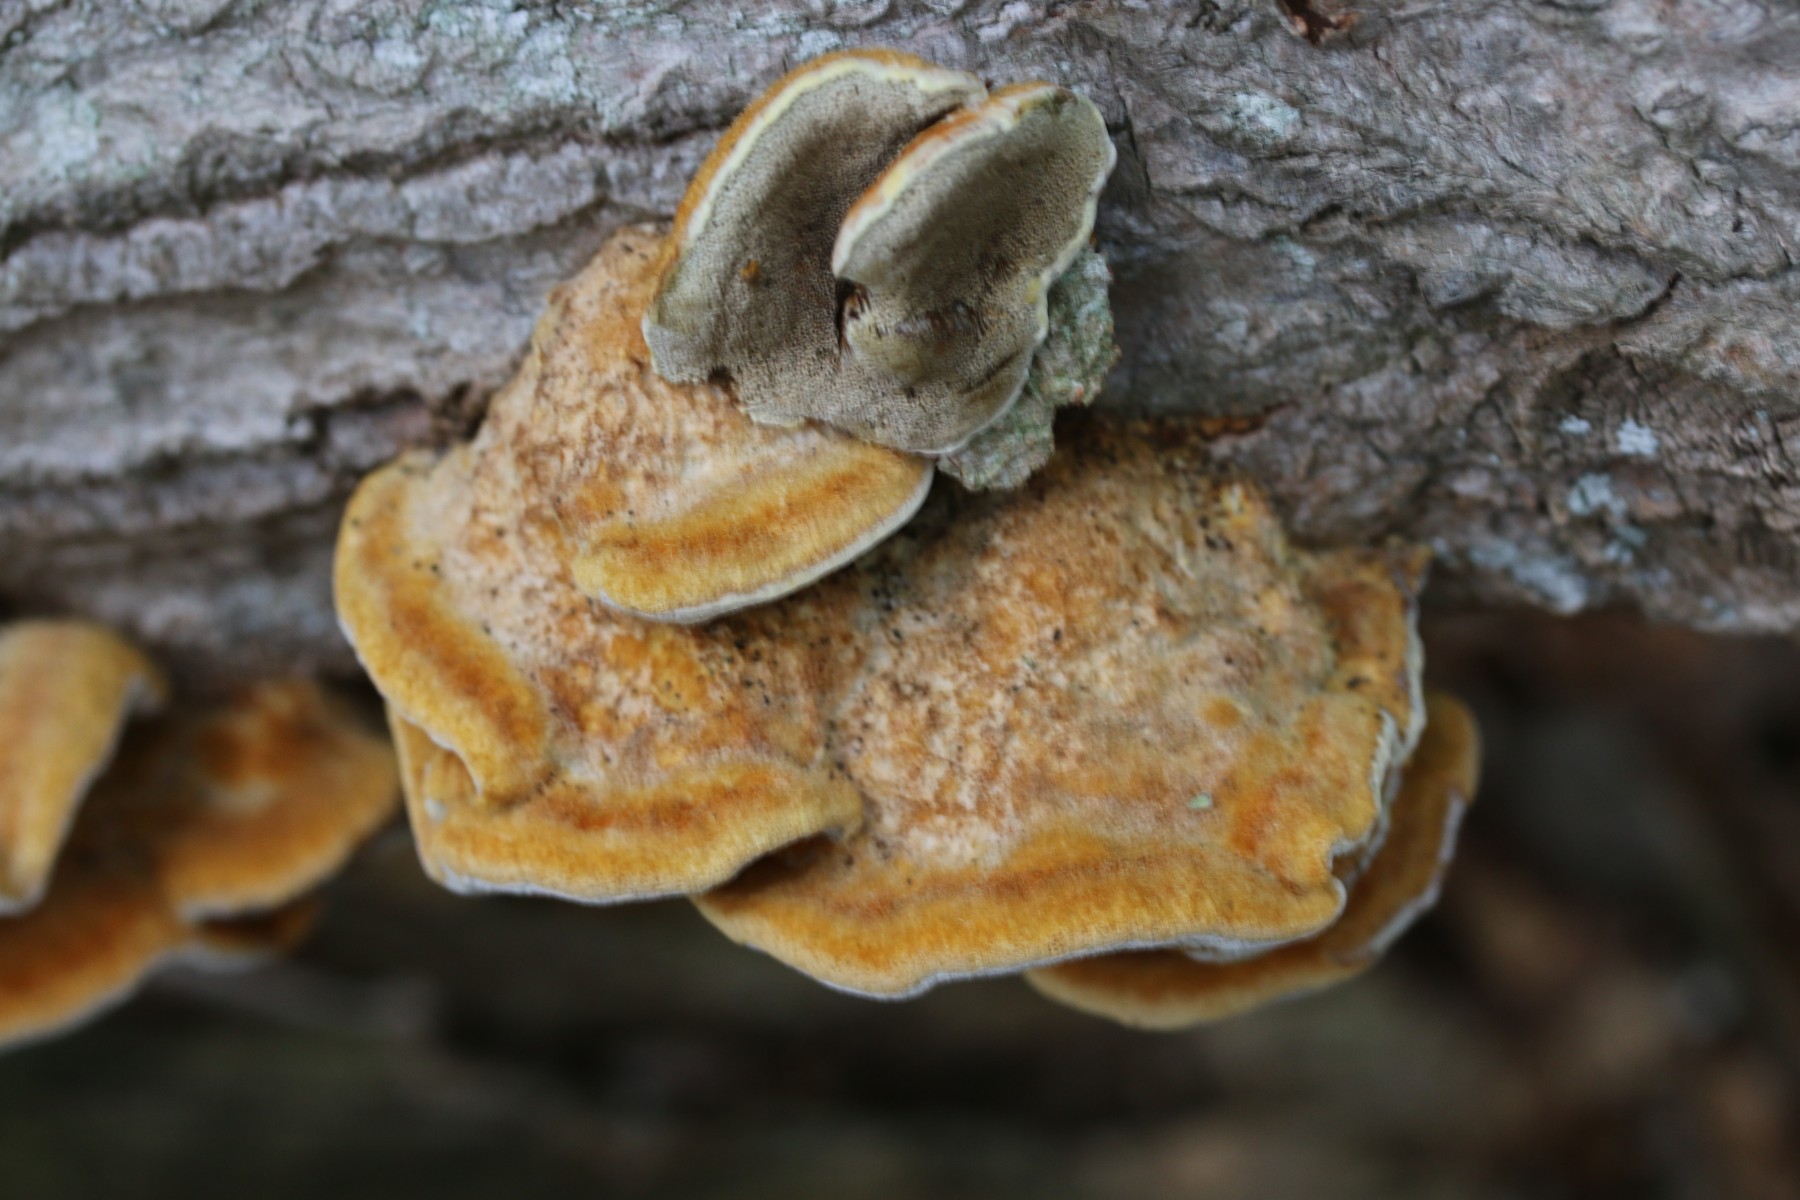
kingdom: Fungi
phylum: Basidiomycota
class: Agaricomycetes
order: Hymenochaetales
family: Hymenochaetaceae
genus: Inocutis
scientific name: Inocutis rheades
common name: ræve-spejlporesvamp
